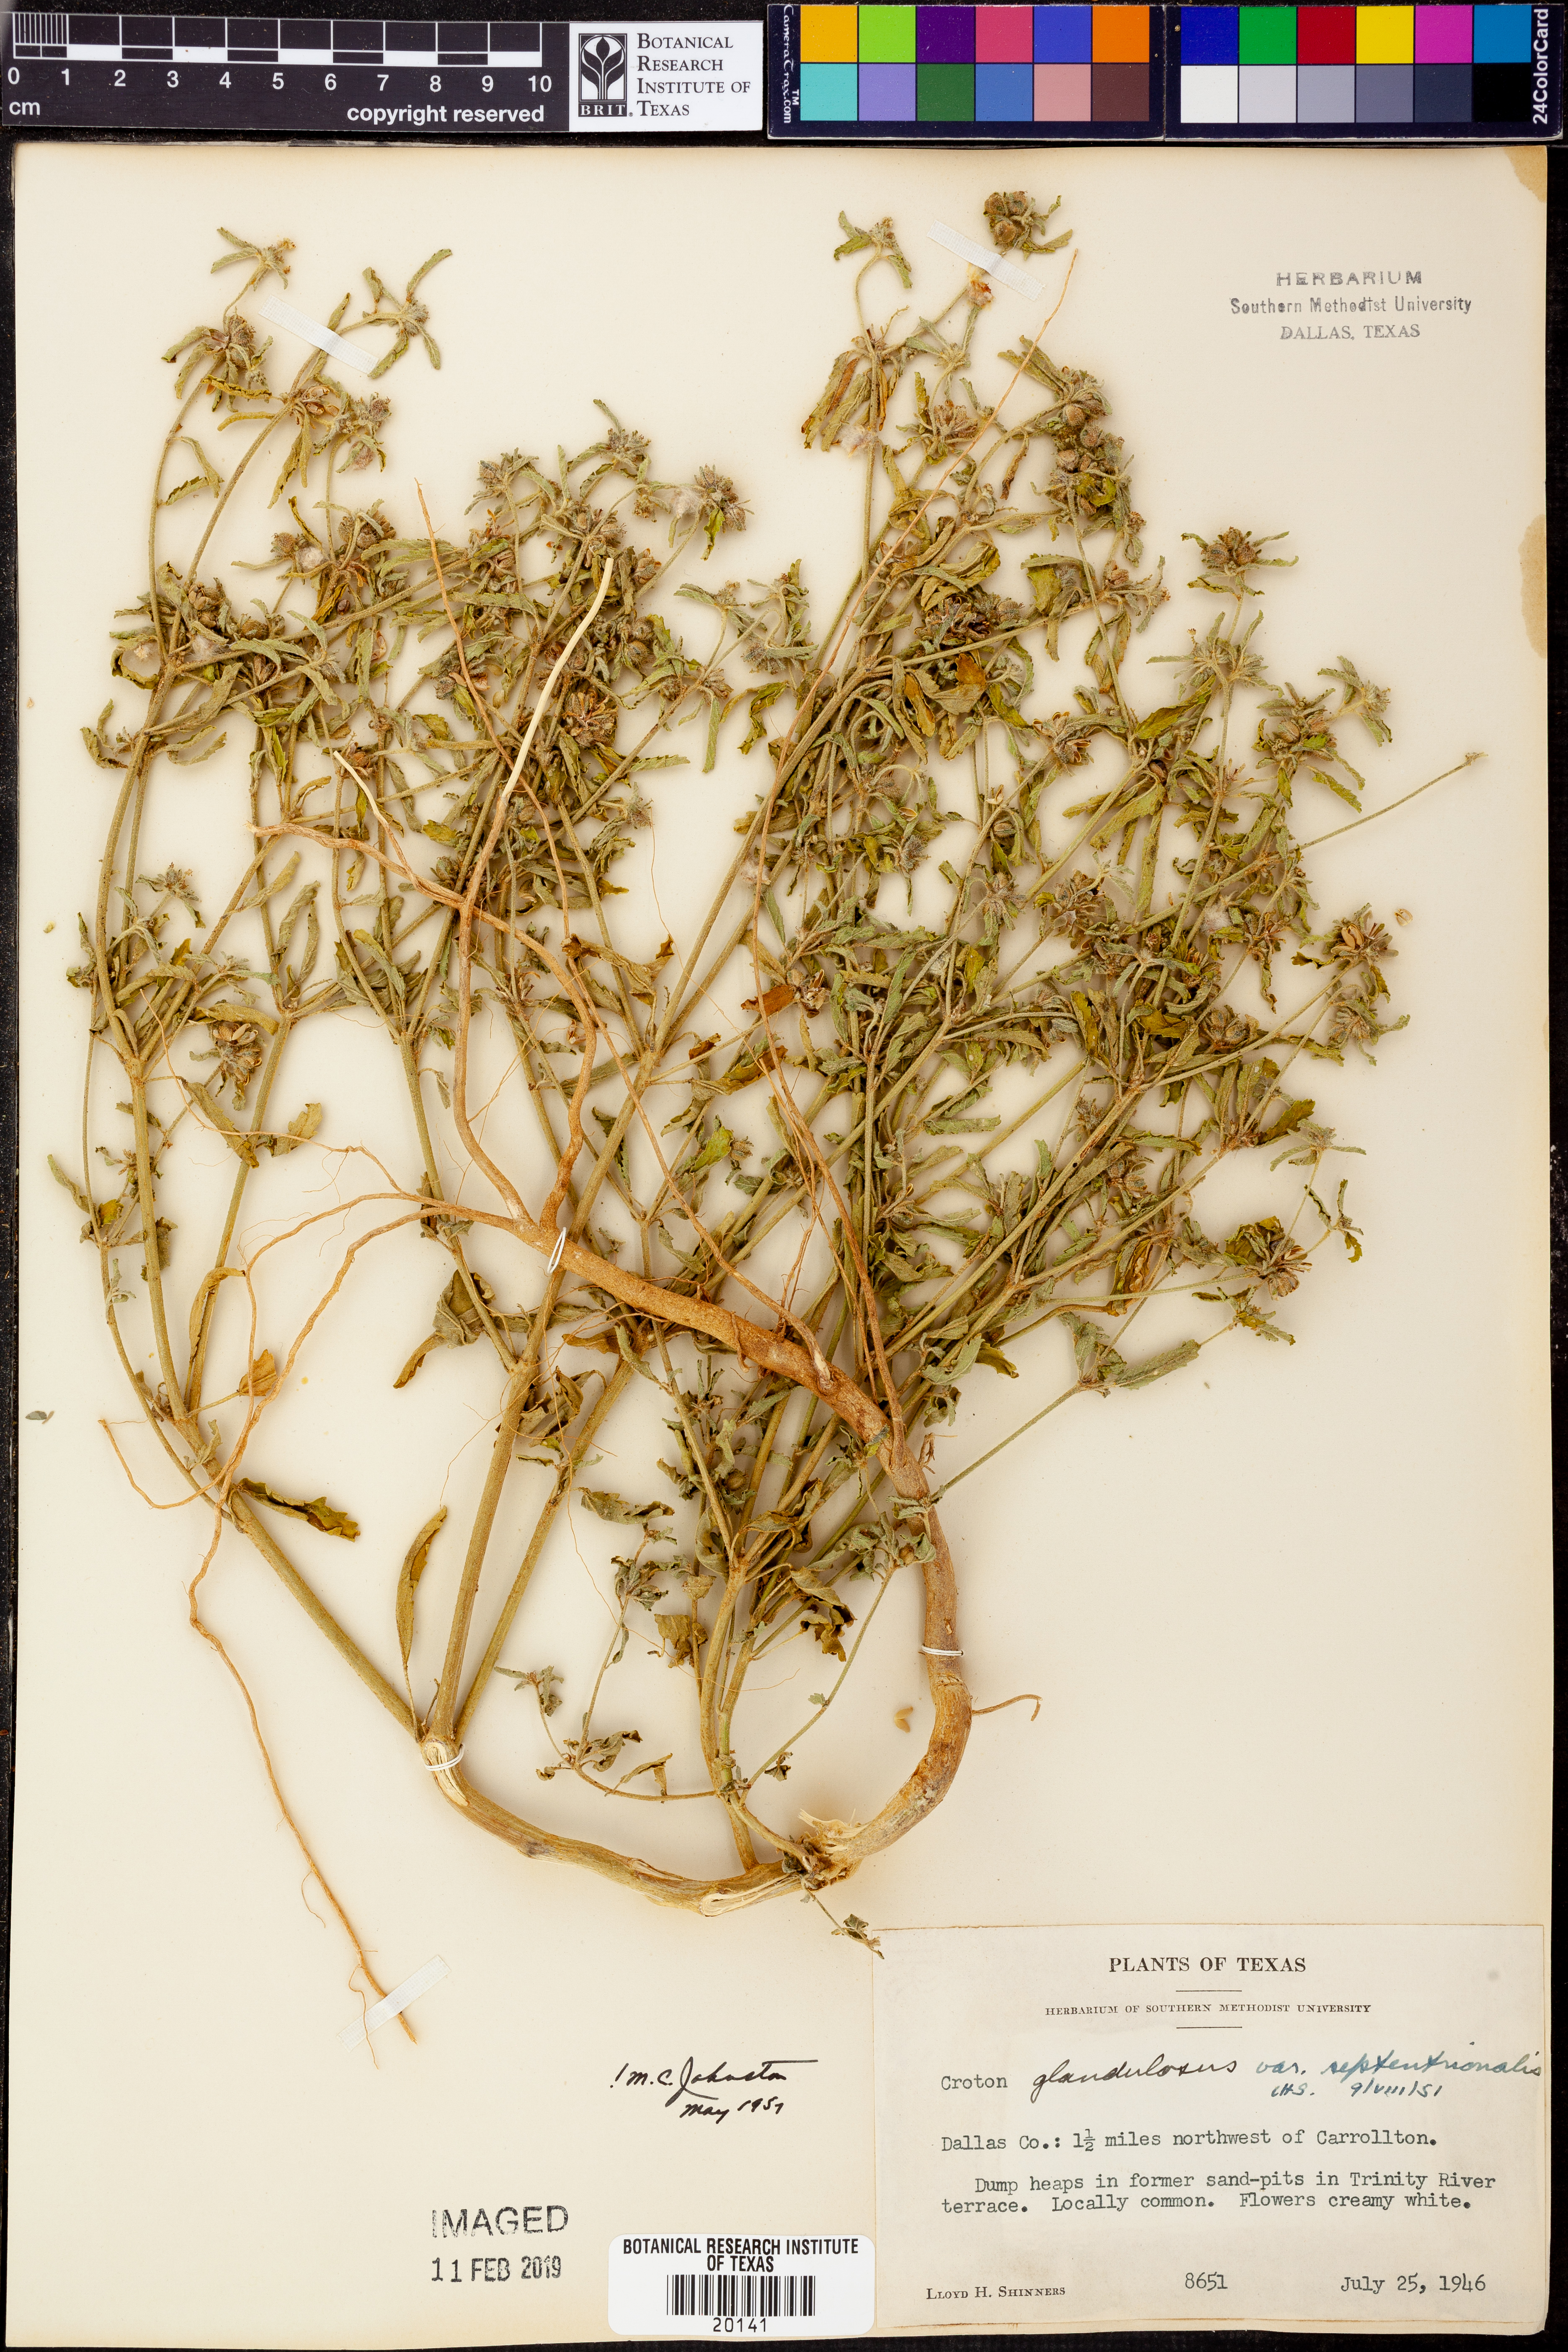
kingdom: Plantae
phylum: Tracheophyta
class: Magnoliopsida
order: Malpighiales
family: Euphorbiaceae
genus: Croton
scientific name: Croton glandulosus
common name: Tropic croton
